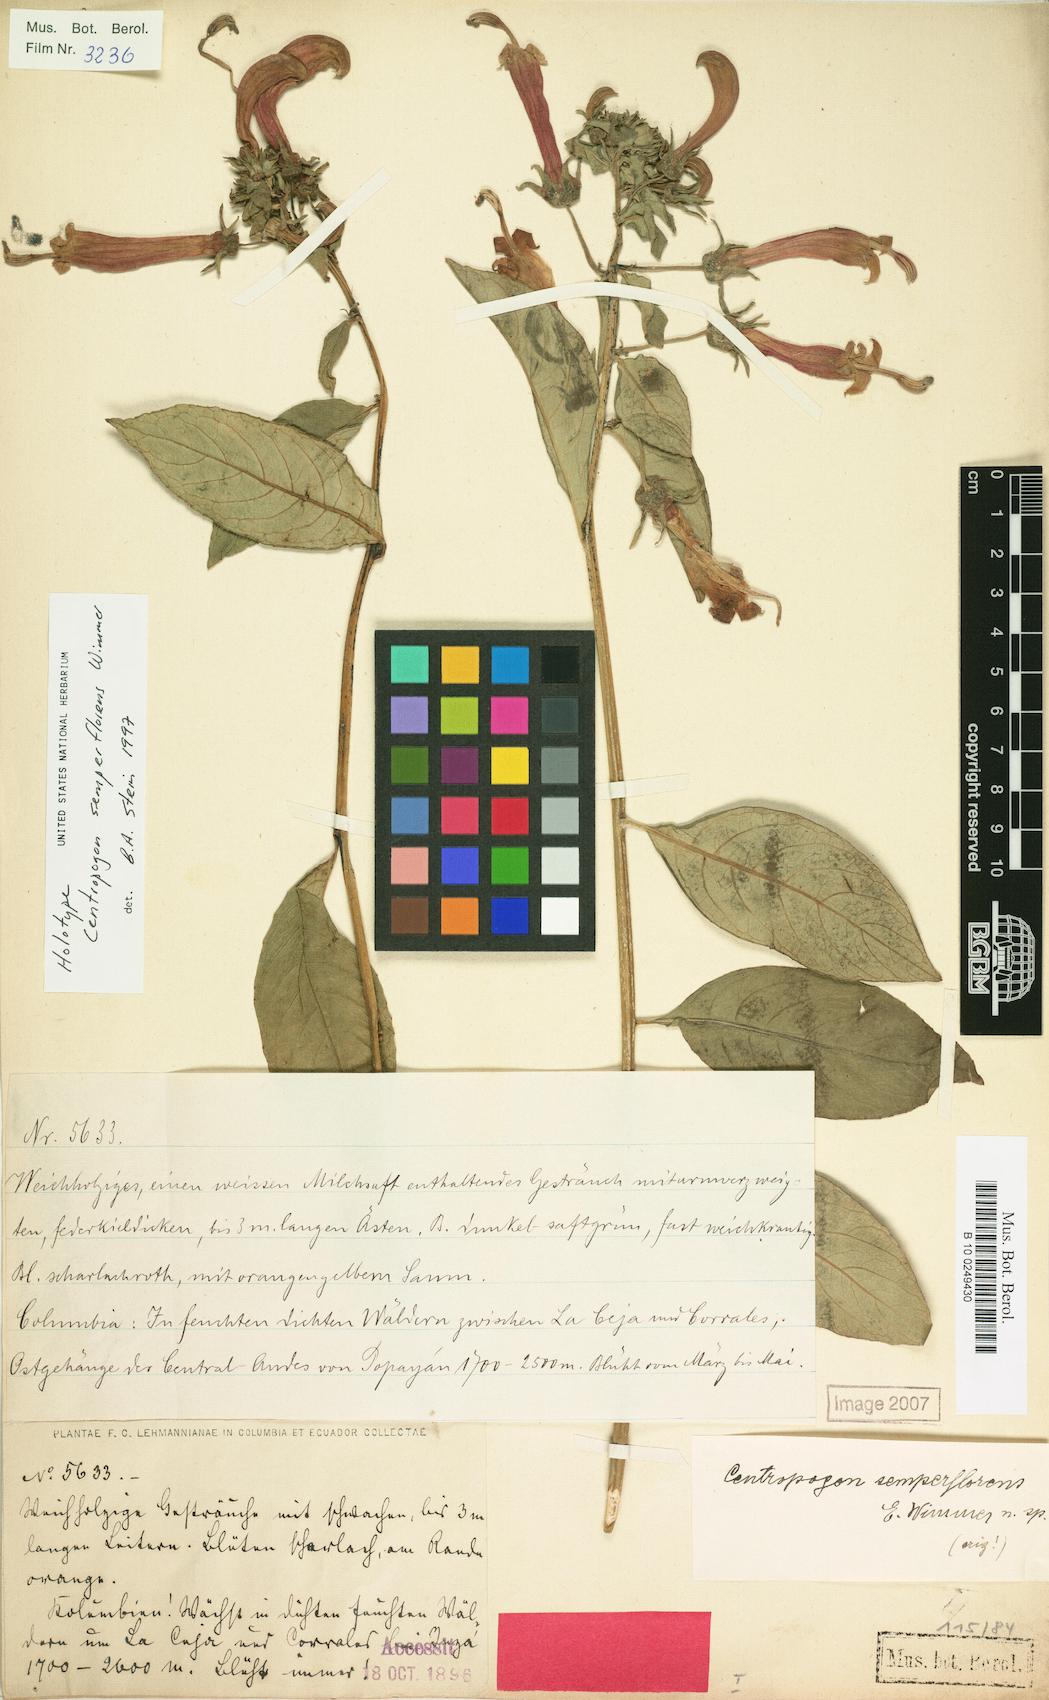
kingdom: Plantae
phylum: Tracheophyta
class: Magnoliopsida
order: Asterales
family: Campanulaceae
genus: Centropogon
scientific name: Centropogon solanifolius
